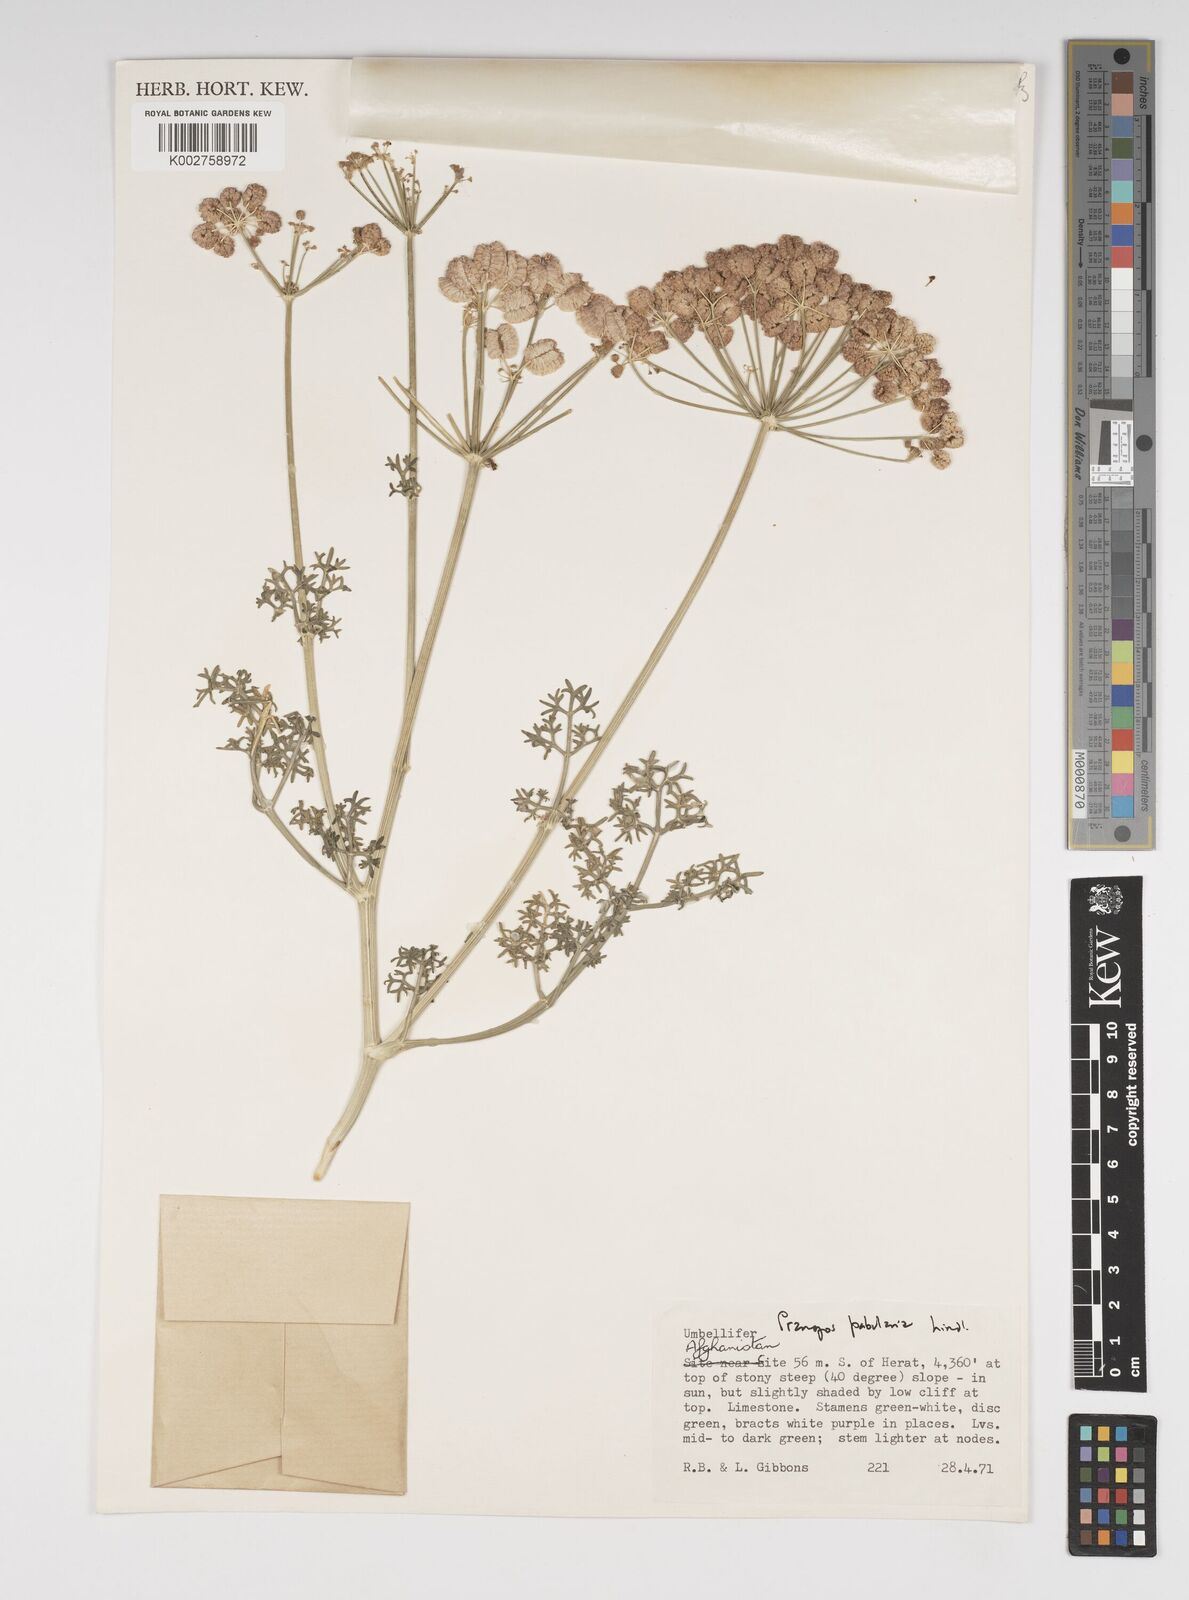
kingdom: Plantae
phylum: Tracheophyta
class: Magnoliopsida
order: Apiales
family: Apiaceae
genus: Prangos
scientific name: Prangos pabularia
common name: Yugan
